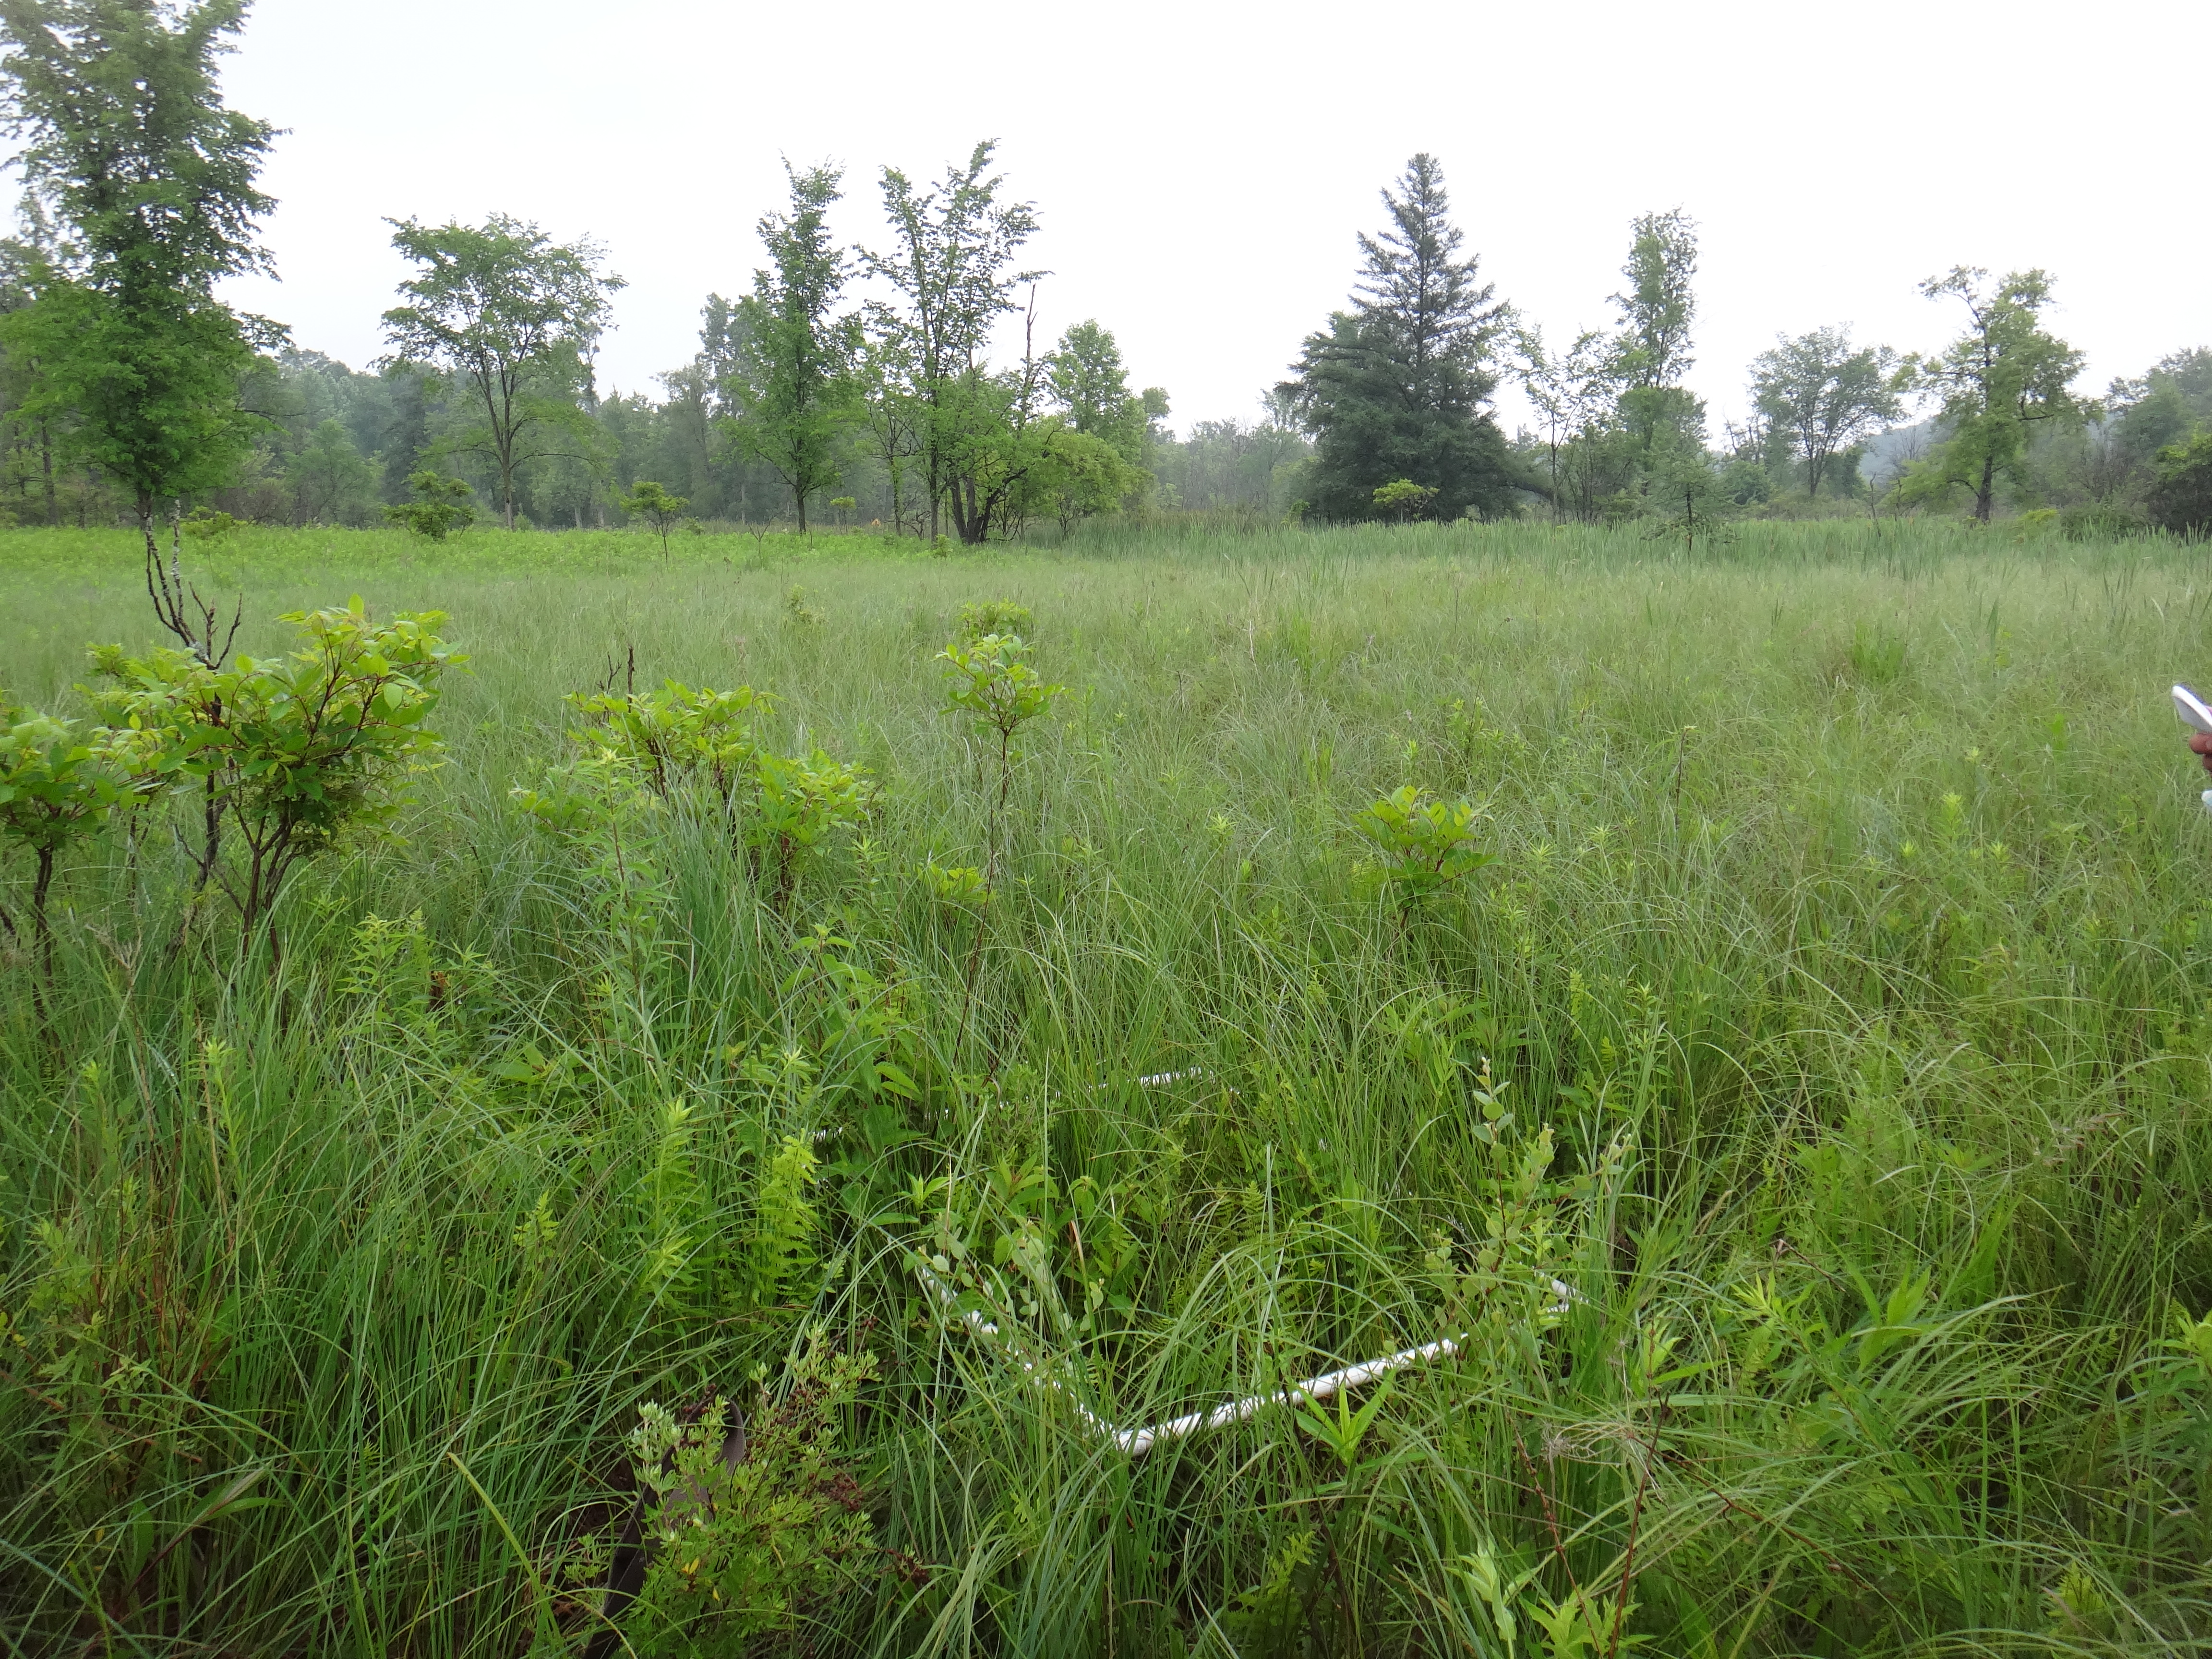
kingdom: Plantae
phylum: Tracheophyta
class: Magnoliopsida
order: Myrtales
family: Lythraceae
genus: Lythrum
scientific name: Lythrum salicaria
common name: Purple loosestrife
